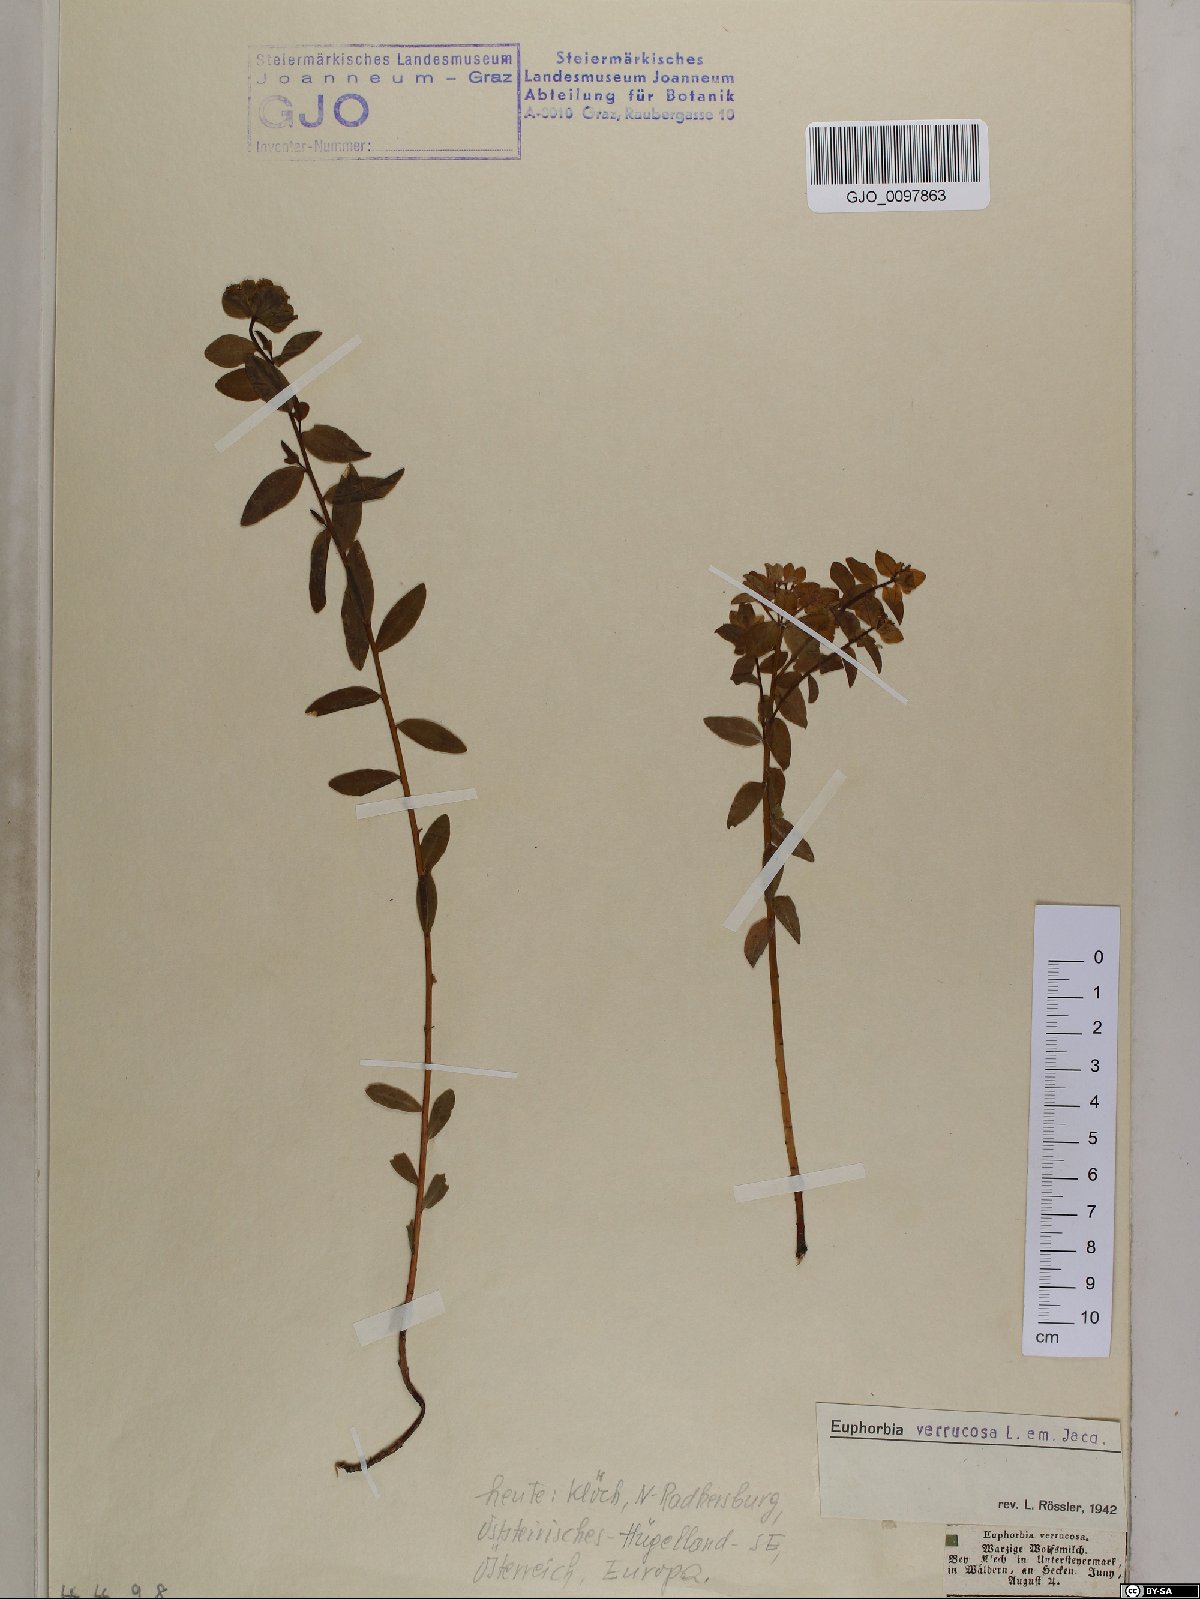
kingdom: Plantae
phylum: Tracheophyta
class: Magnoliopsida
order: Malpighiales
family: Euphorbiaceae
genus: Euphorbia
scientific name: Euphorbia verrucosa
